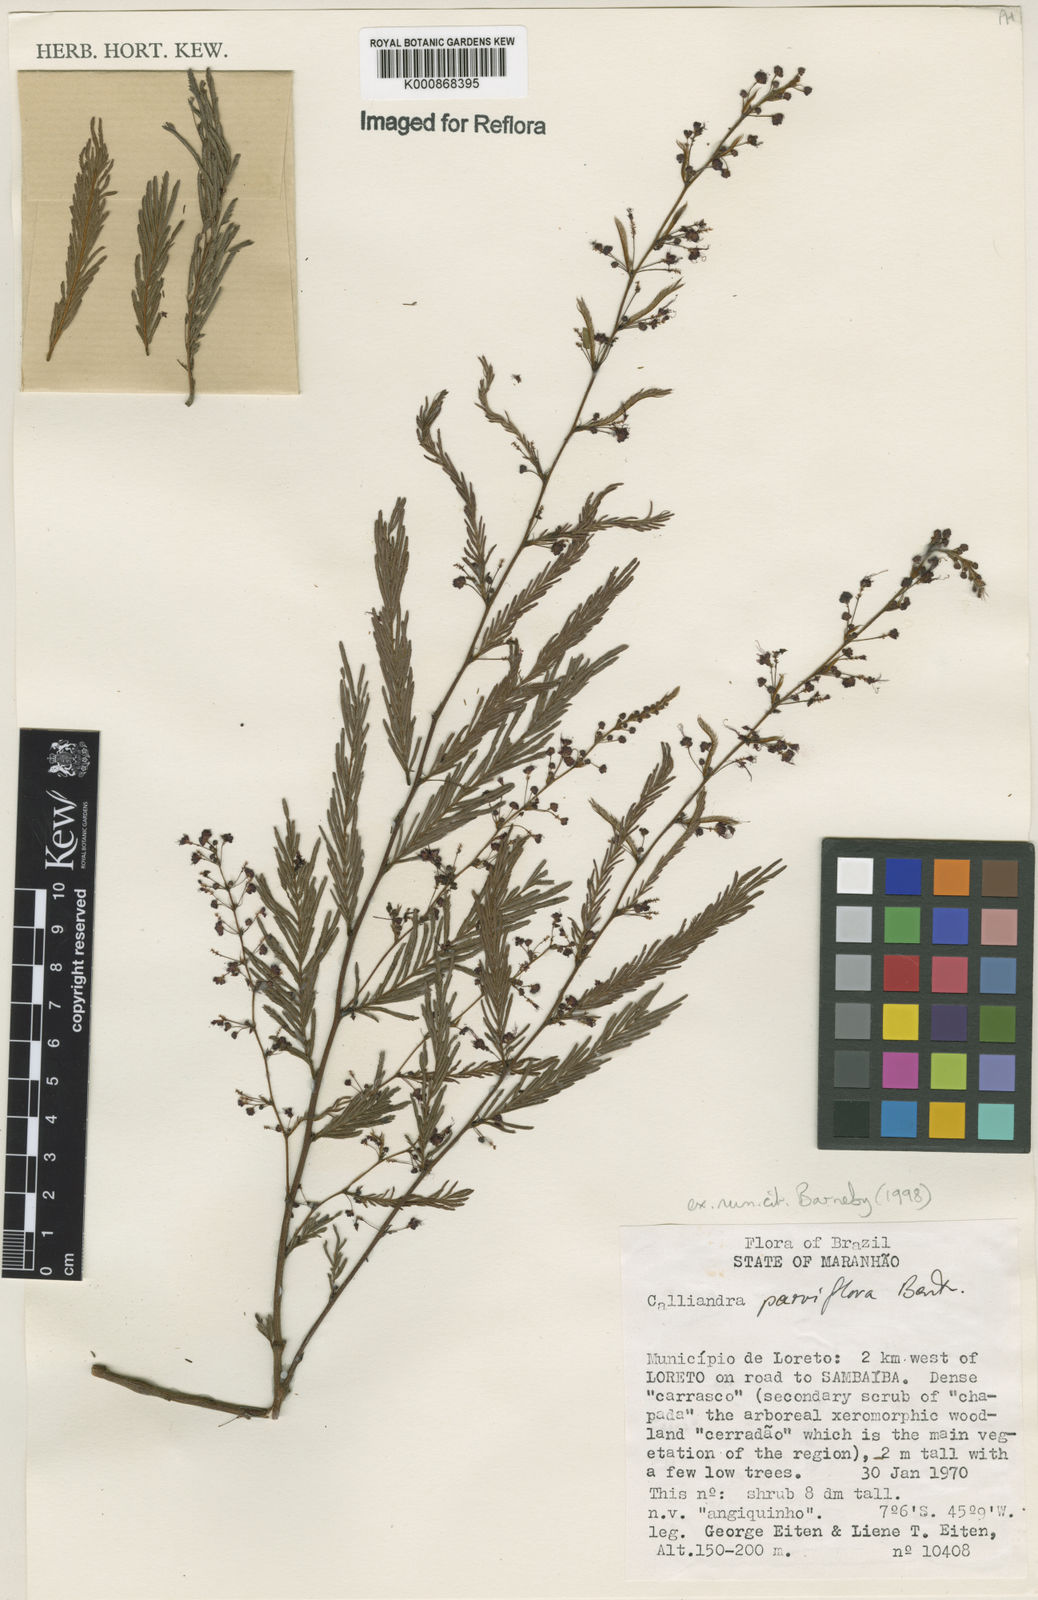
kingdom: Plantae
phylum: Tracheophyta
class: Magnoliopsida
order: Fabales
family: Fabaceae
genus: Calliandra
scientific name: Calliandra parviflora
